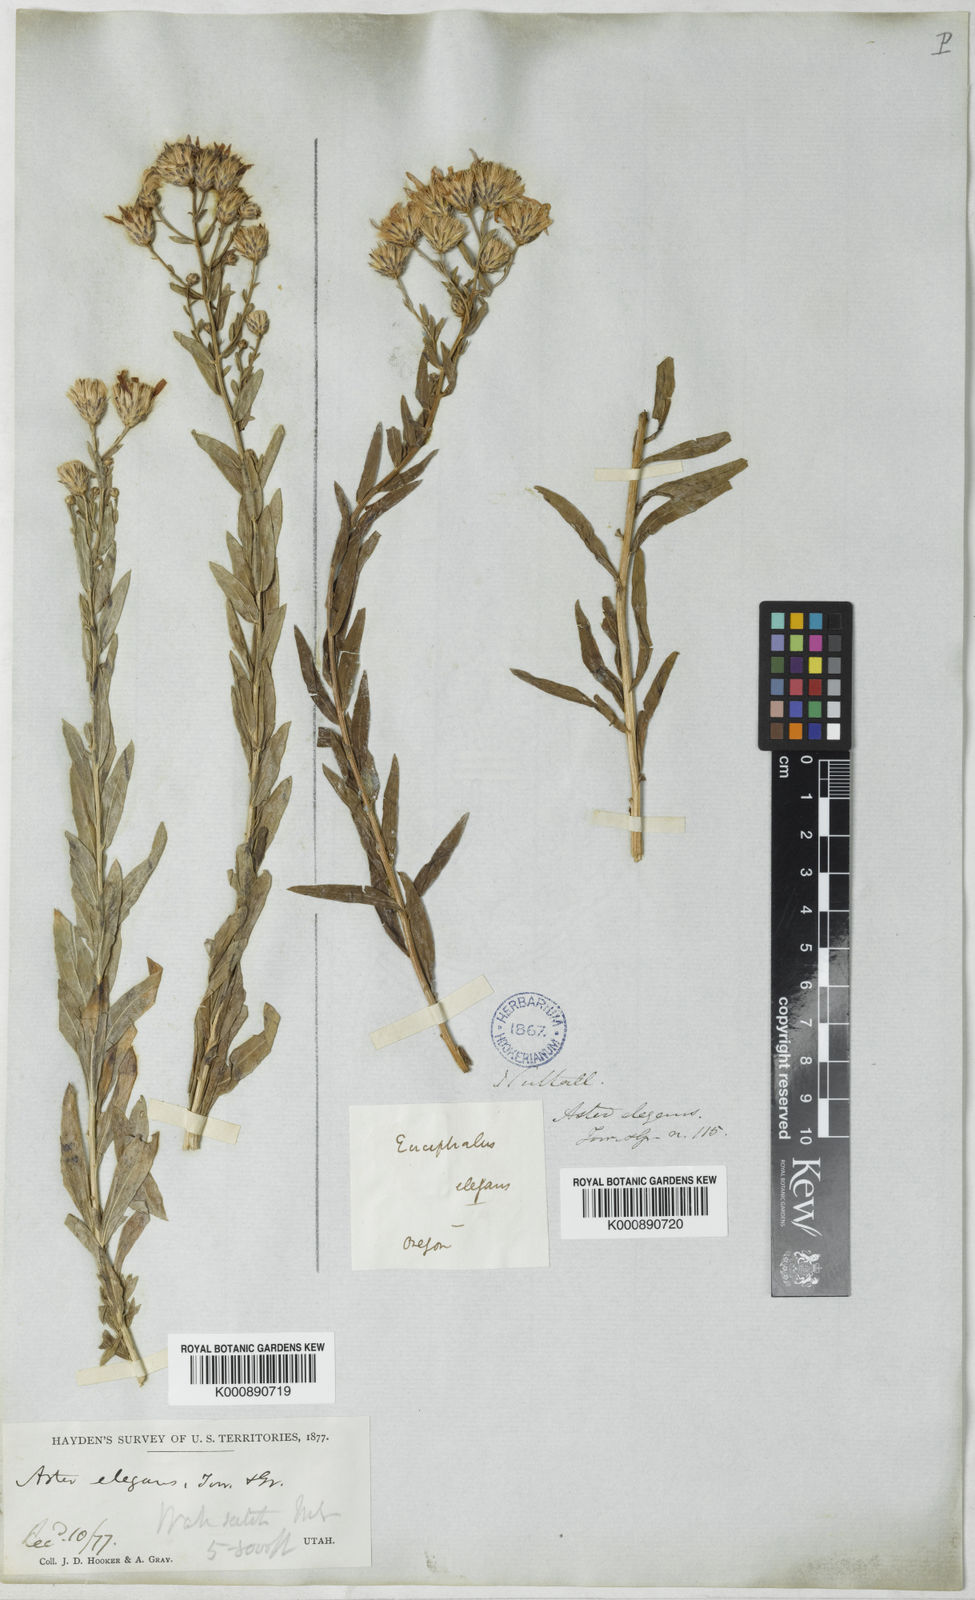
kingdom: Plantae
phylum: Tracheophyta
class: Magnoliopsida
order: Asterales
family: Asteraceae
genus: Aster
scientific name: Aster
